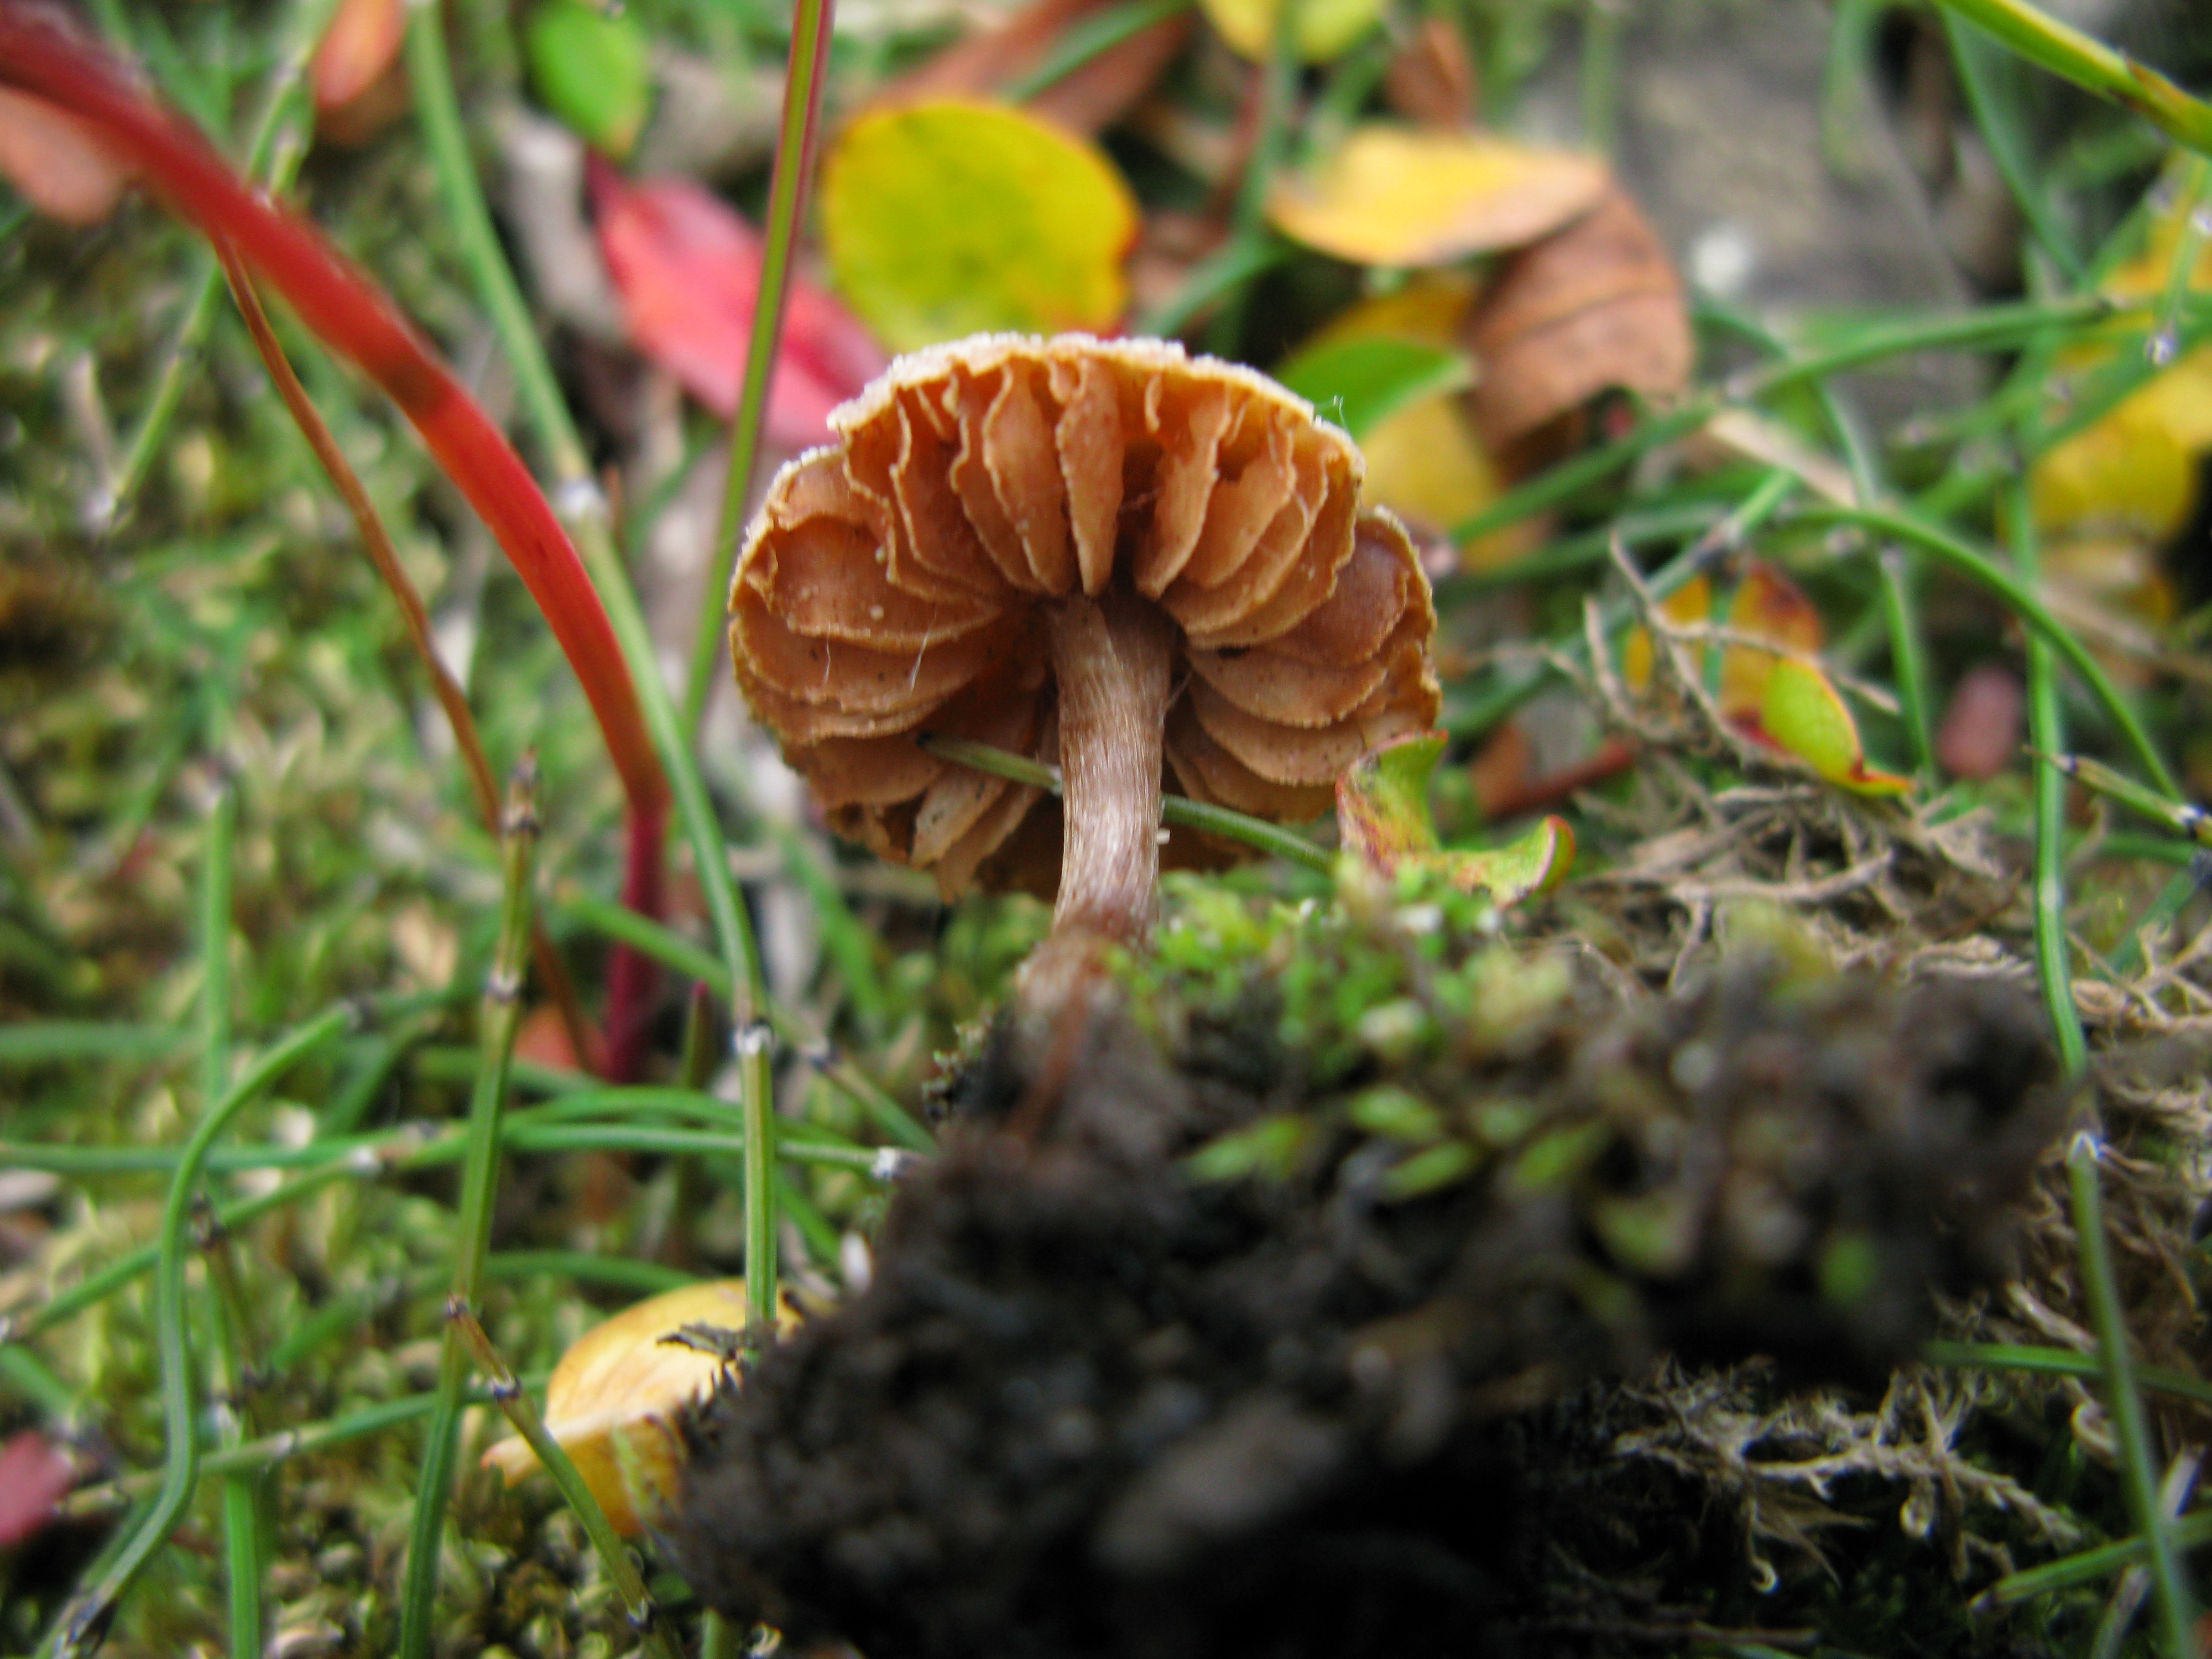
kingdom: Fungi
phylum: Basidiomycota
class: Agaricomycetes
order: Agaricales
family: Hymenogastraceae
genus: Hebeloma
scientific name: Hebeloma nigellum
